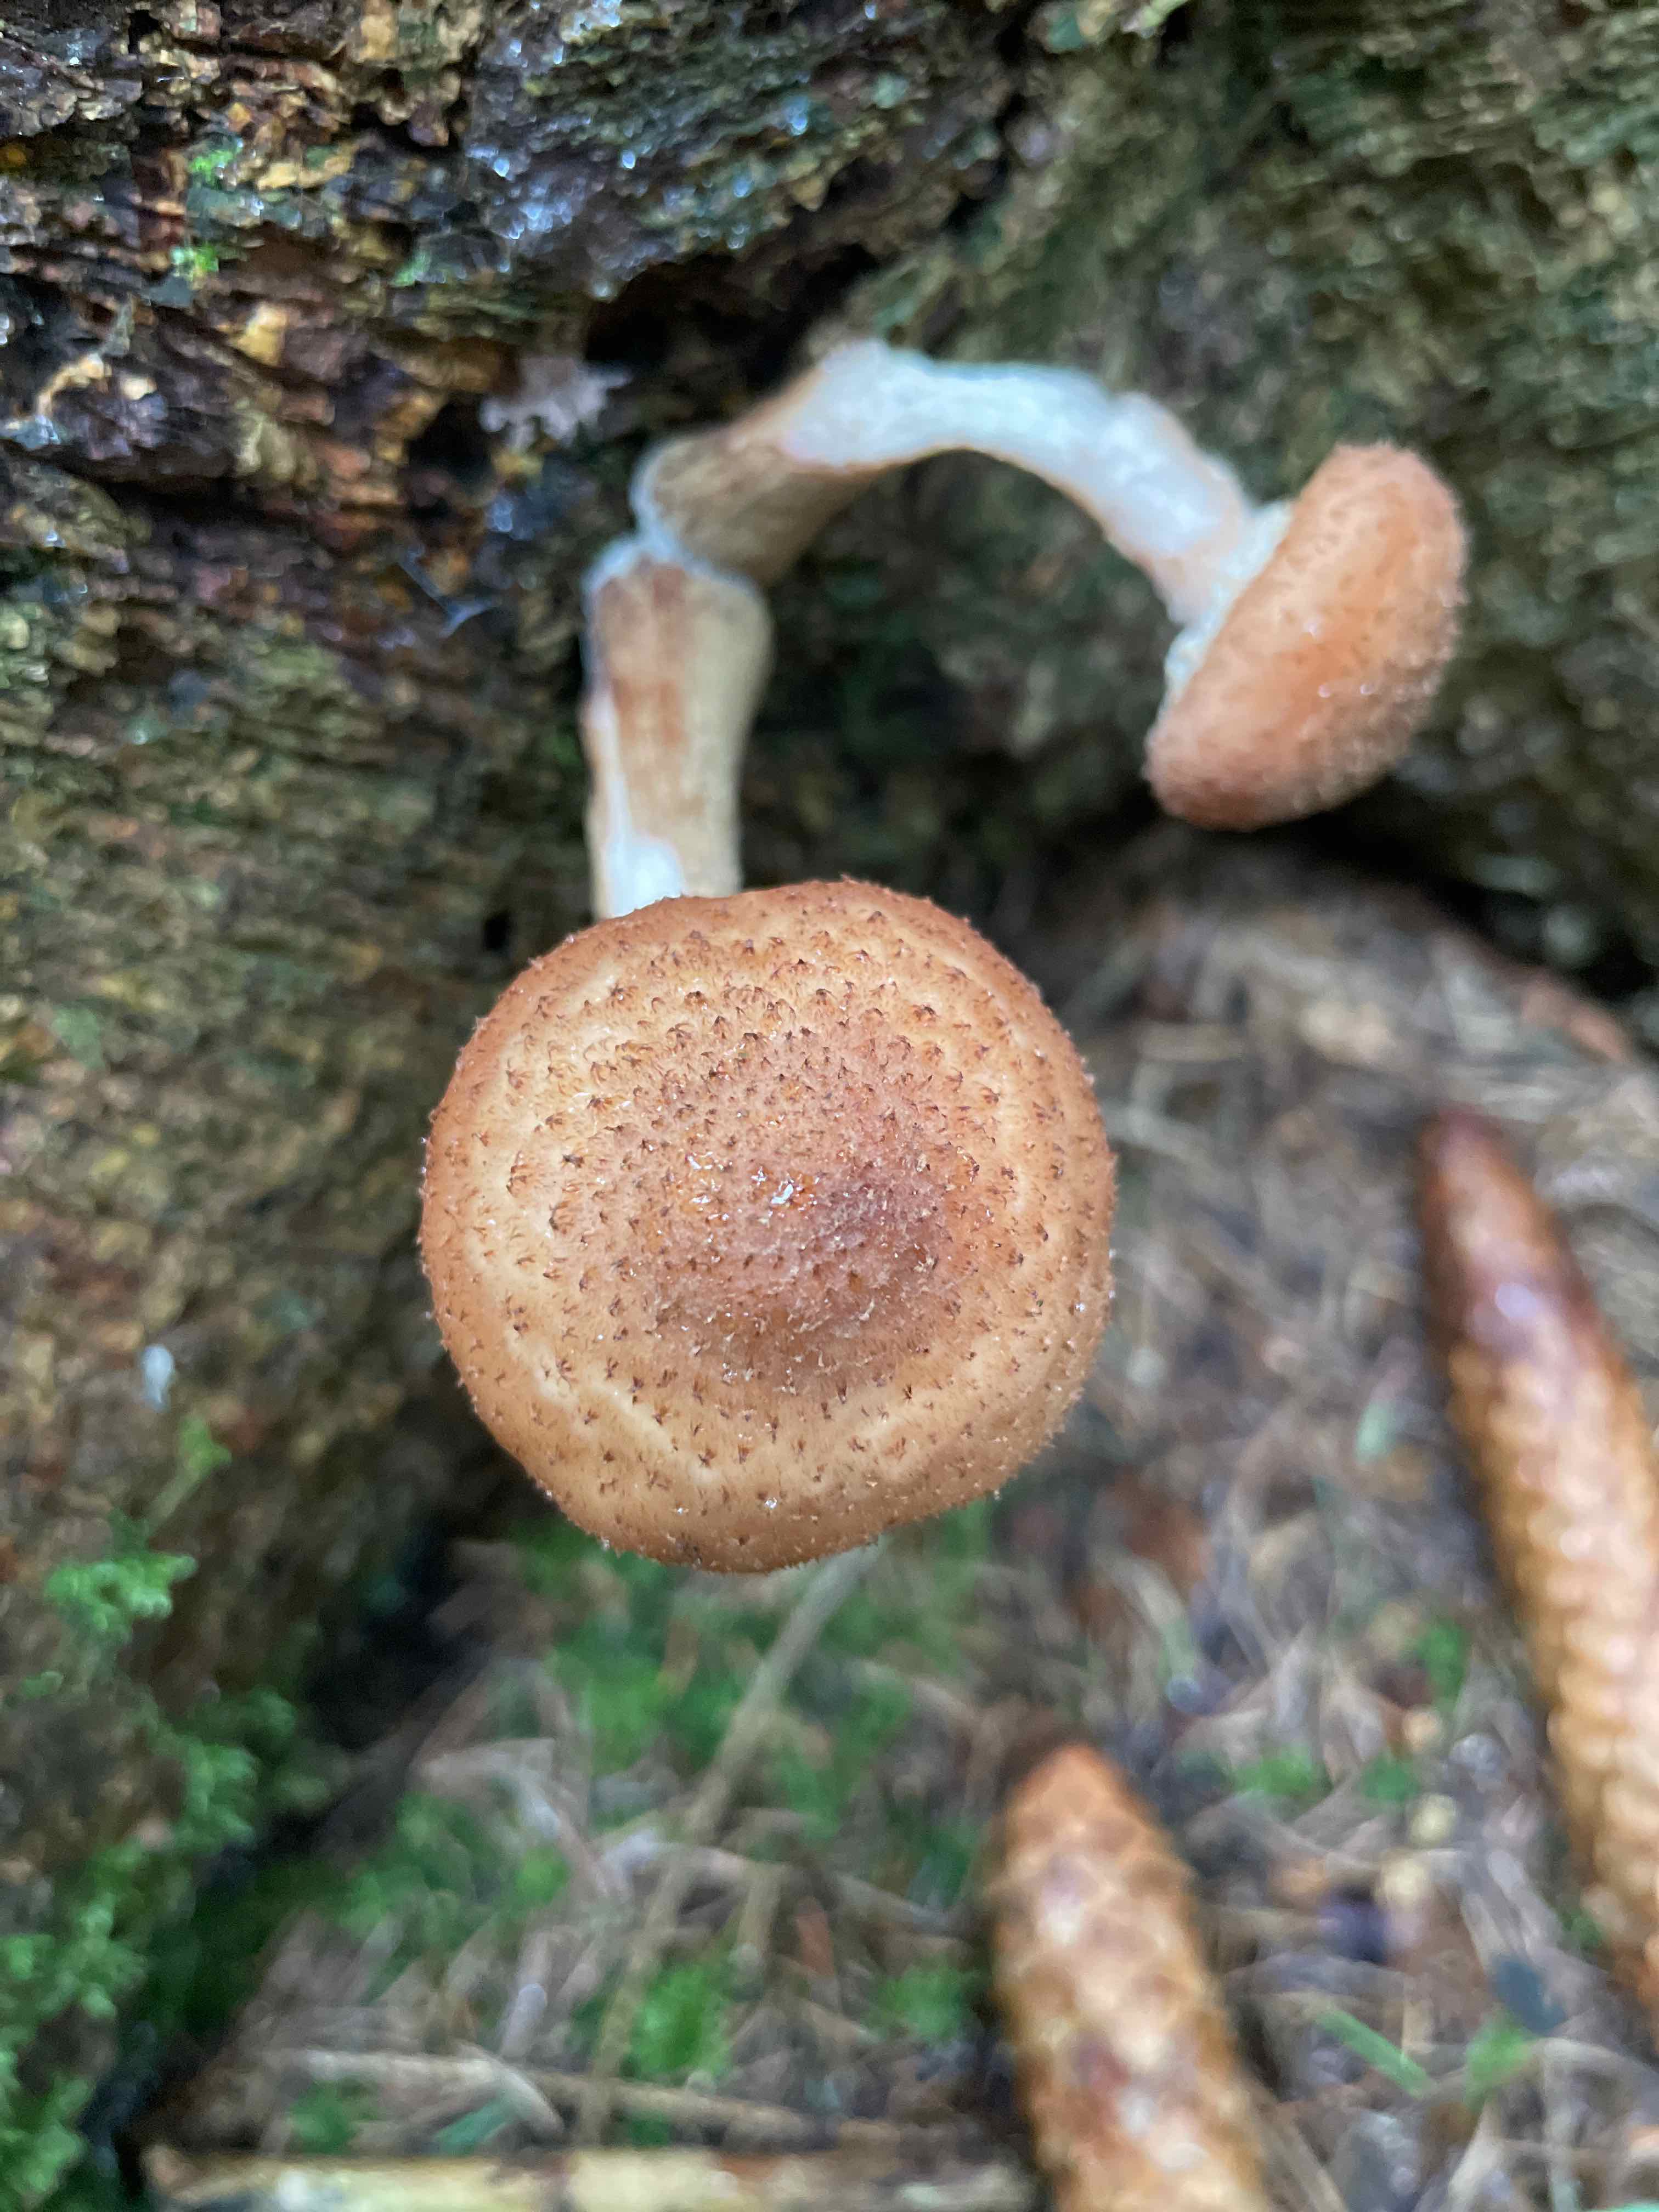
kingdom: Fungi
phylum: Basidiomycota
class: Agaricomycetes
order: Agaricales
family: Physalacriaceae
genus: Armillaria
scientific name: Armillaria
